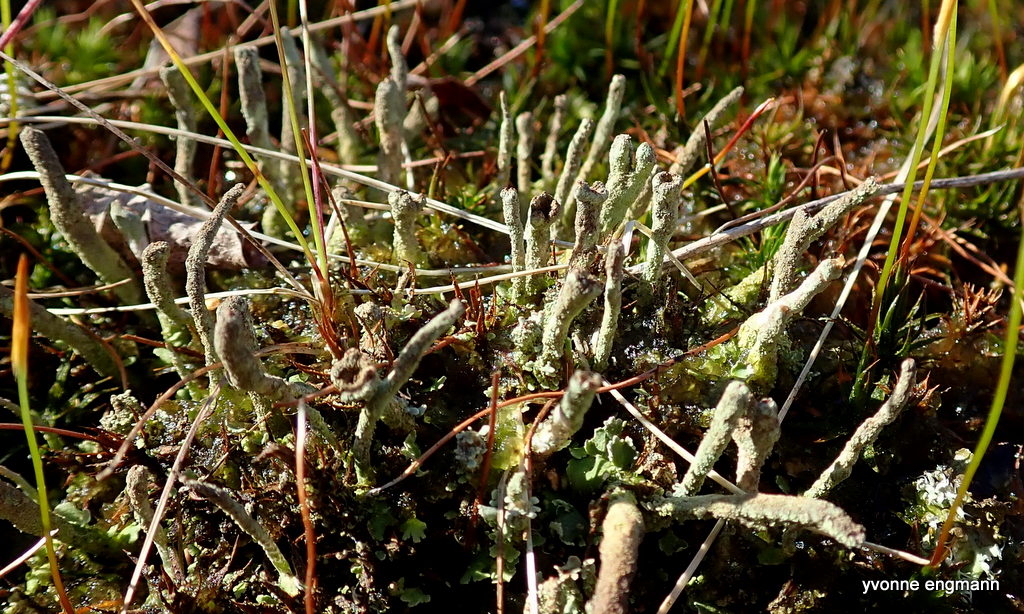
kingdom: Fungi
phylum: Ascomycota
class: Lecanoromycetes
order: Lecanorales
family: Cladoniaceae
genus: Cladonia
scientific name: Cladonia ochrochlora
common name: stød-bægerlav
